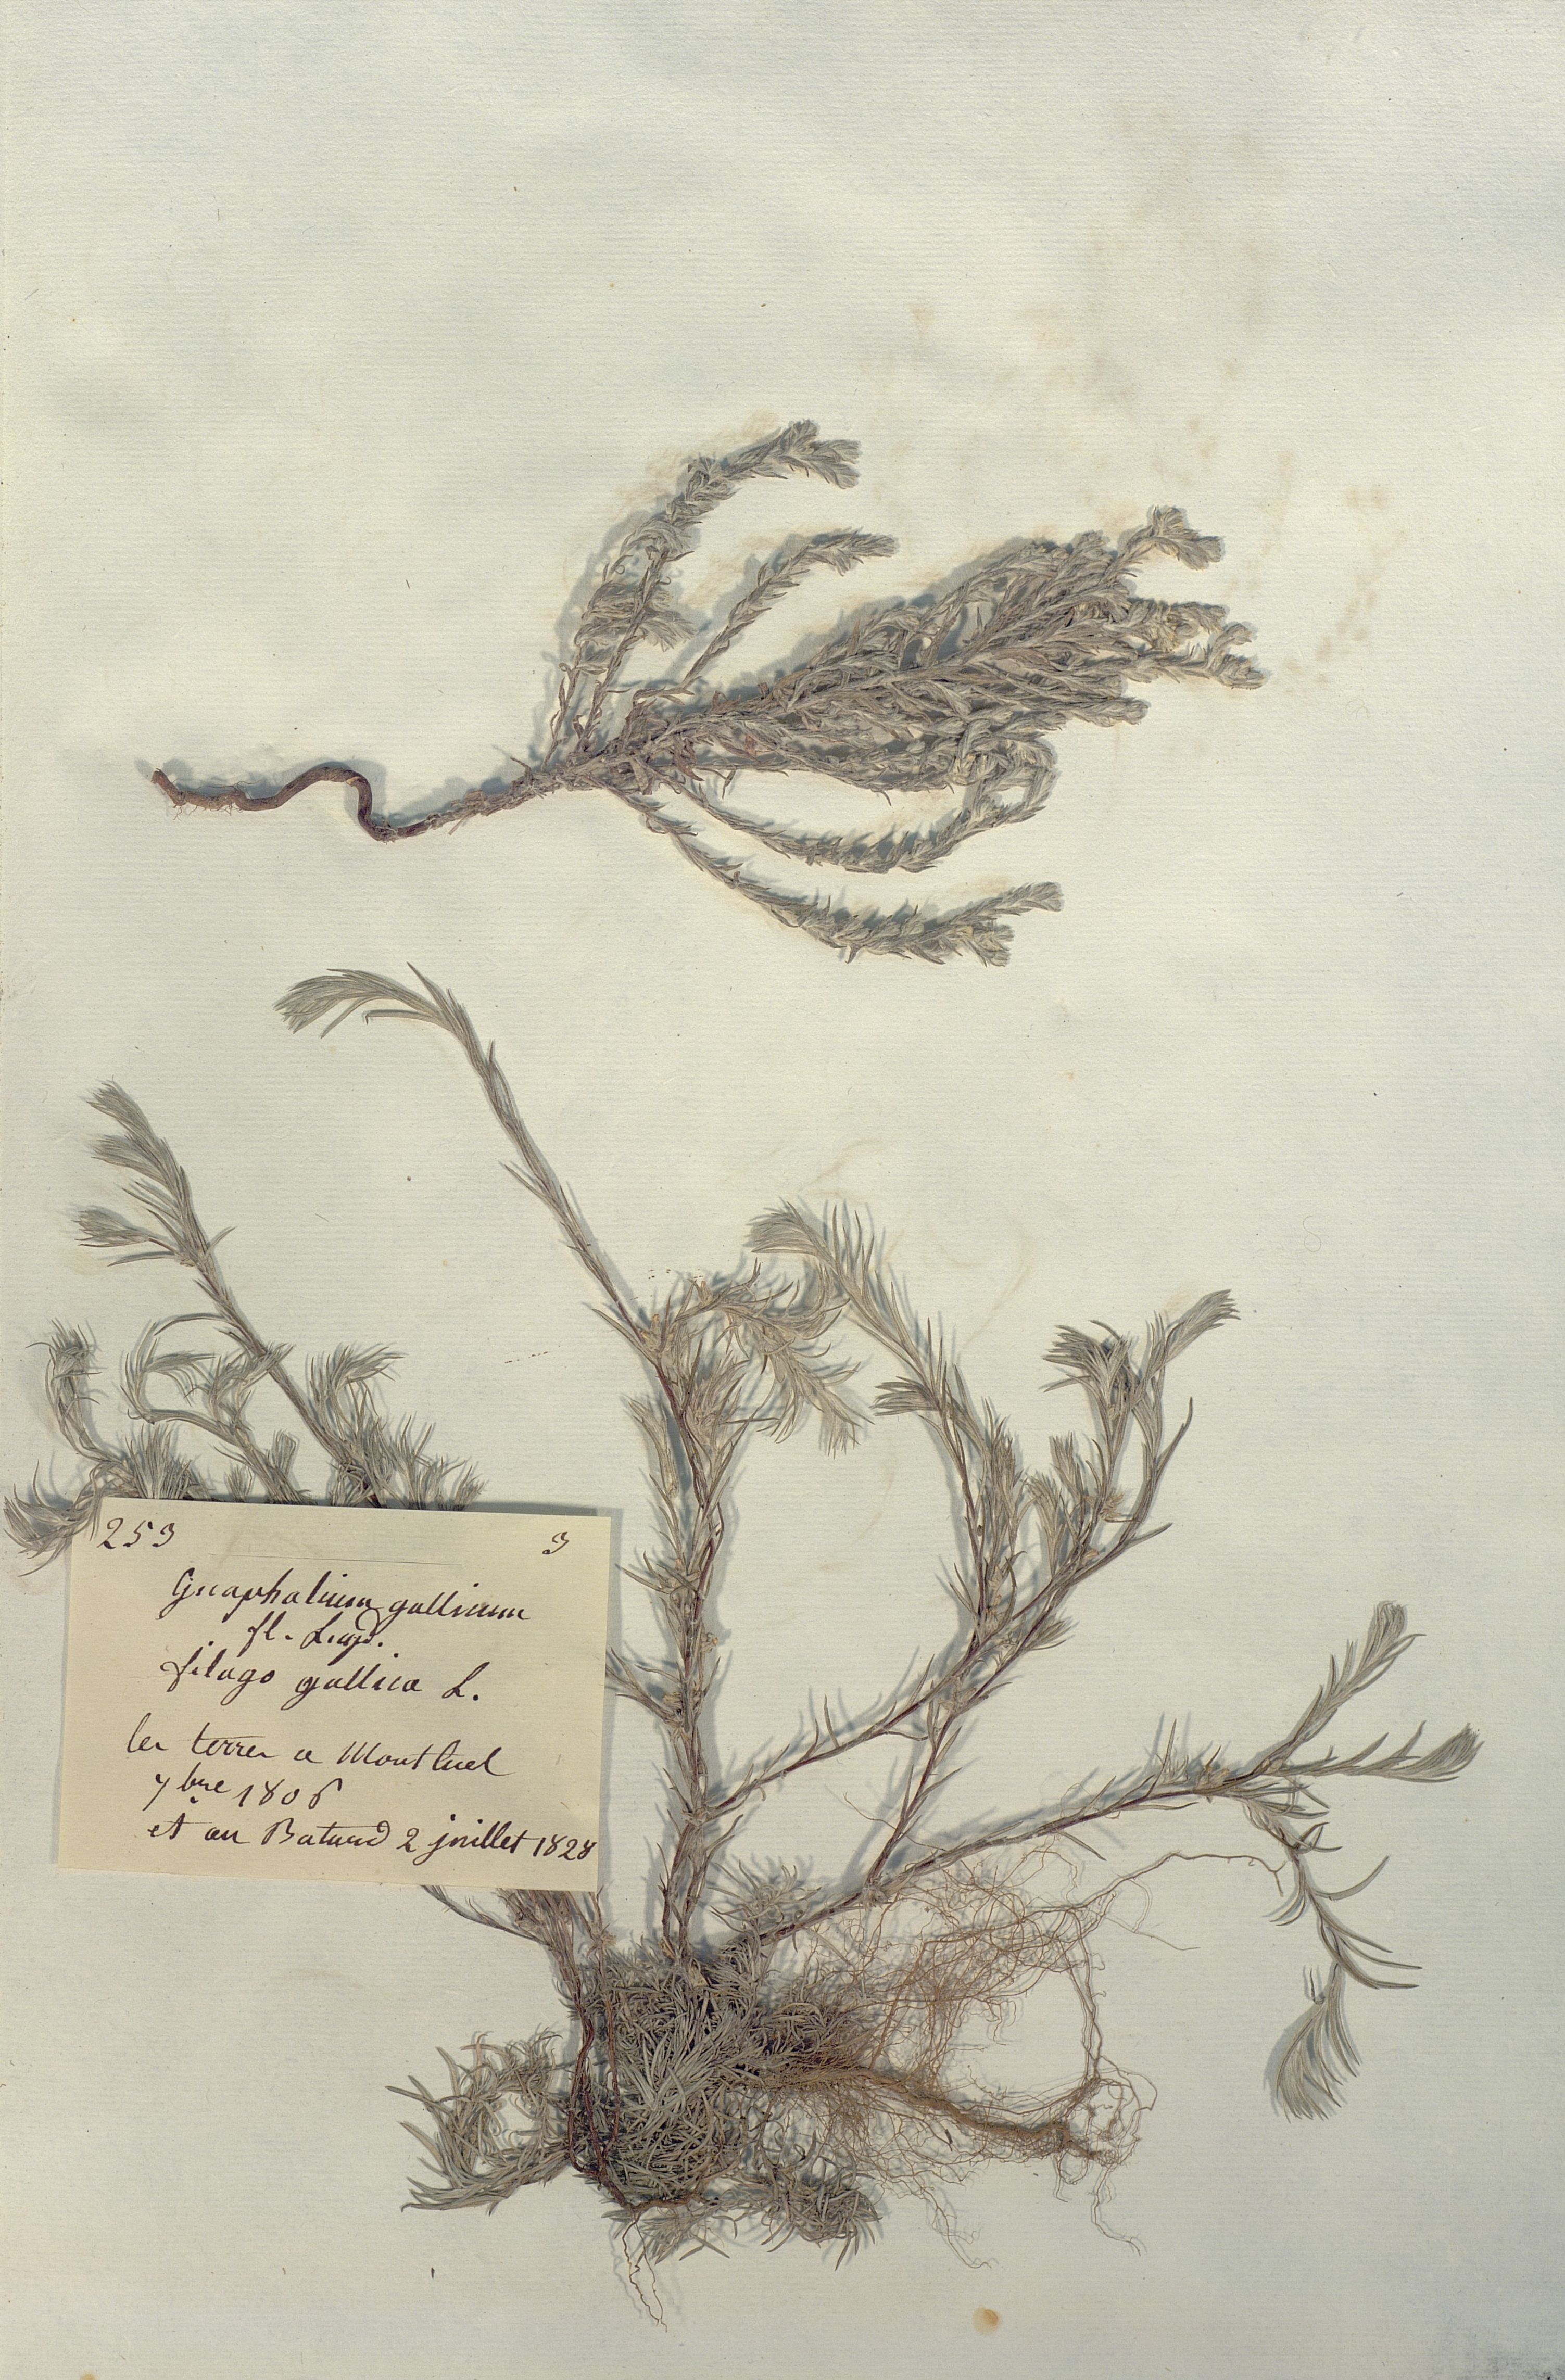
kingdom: Plantae
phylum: Tracheophyta
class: Magnoliopsida
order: Asterales
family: Asteraceae
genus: Logfia
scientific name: Logfia
